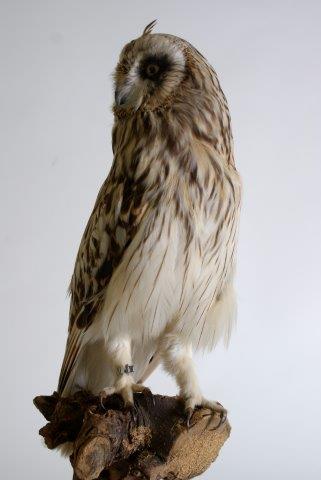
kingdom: Animalia
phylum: Chordata
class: Aves
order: Strigiformes
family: Strigidae
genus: Asio
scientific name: Asio flammeus
